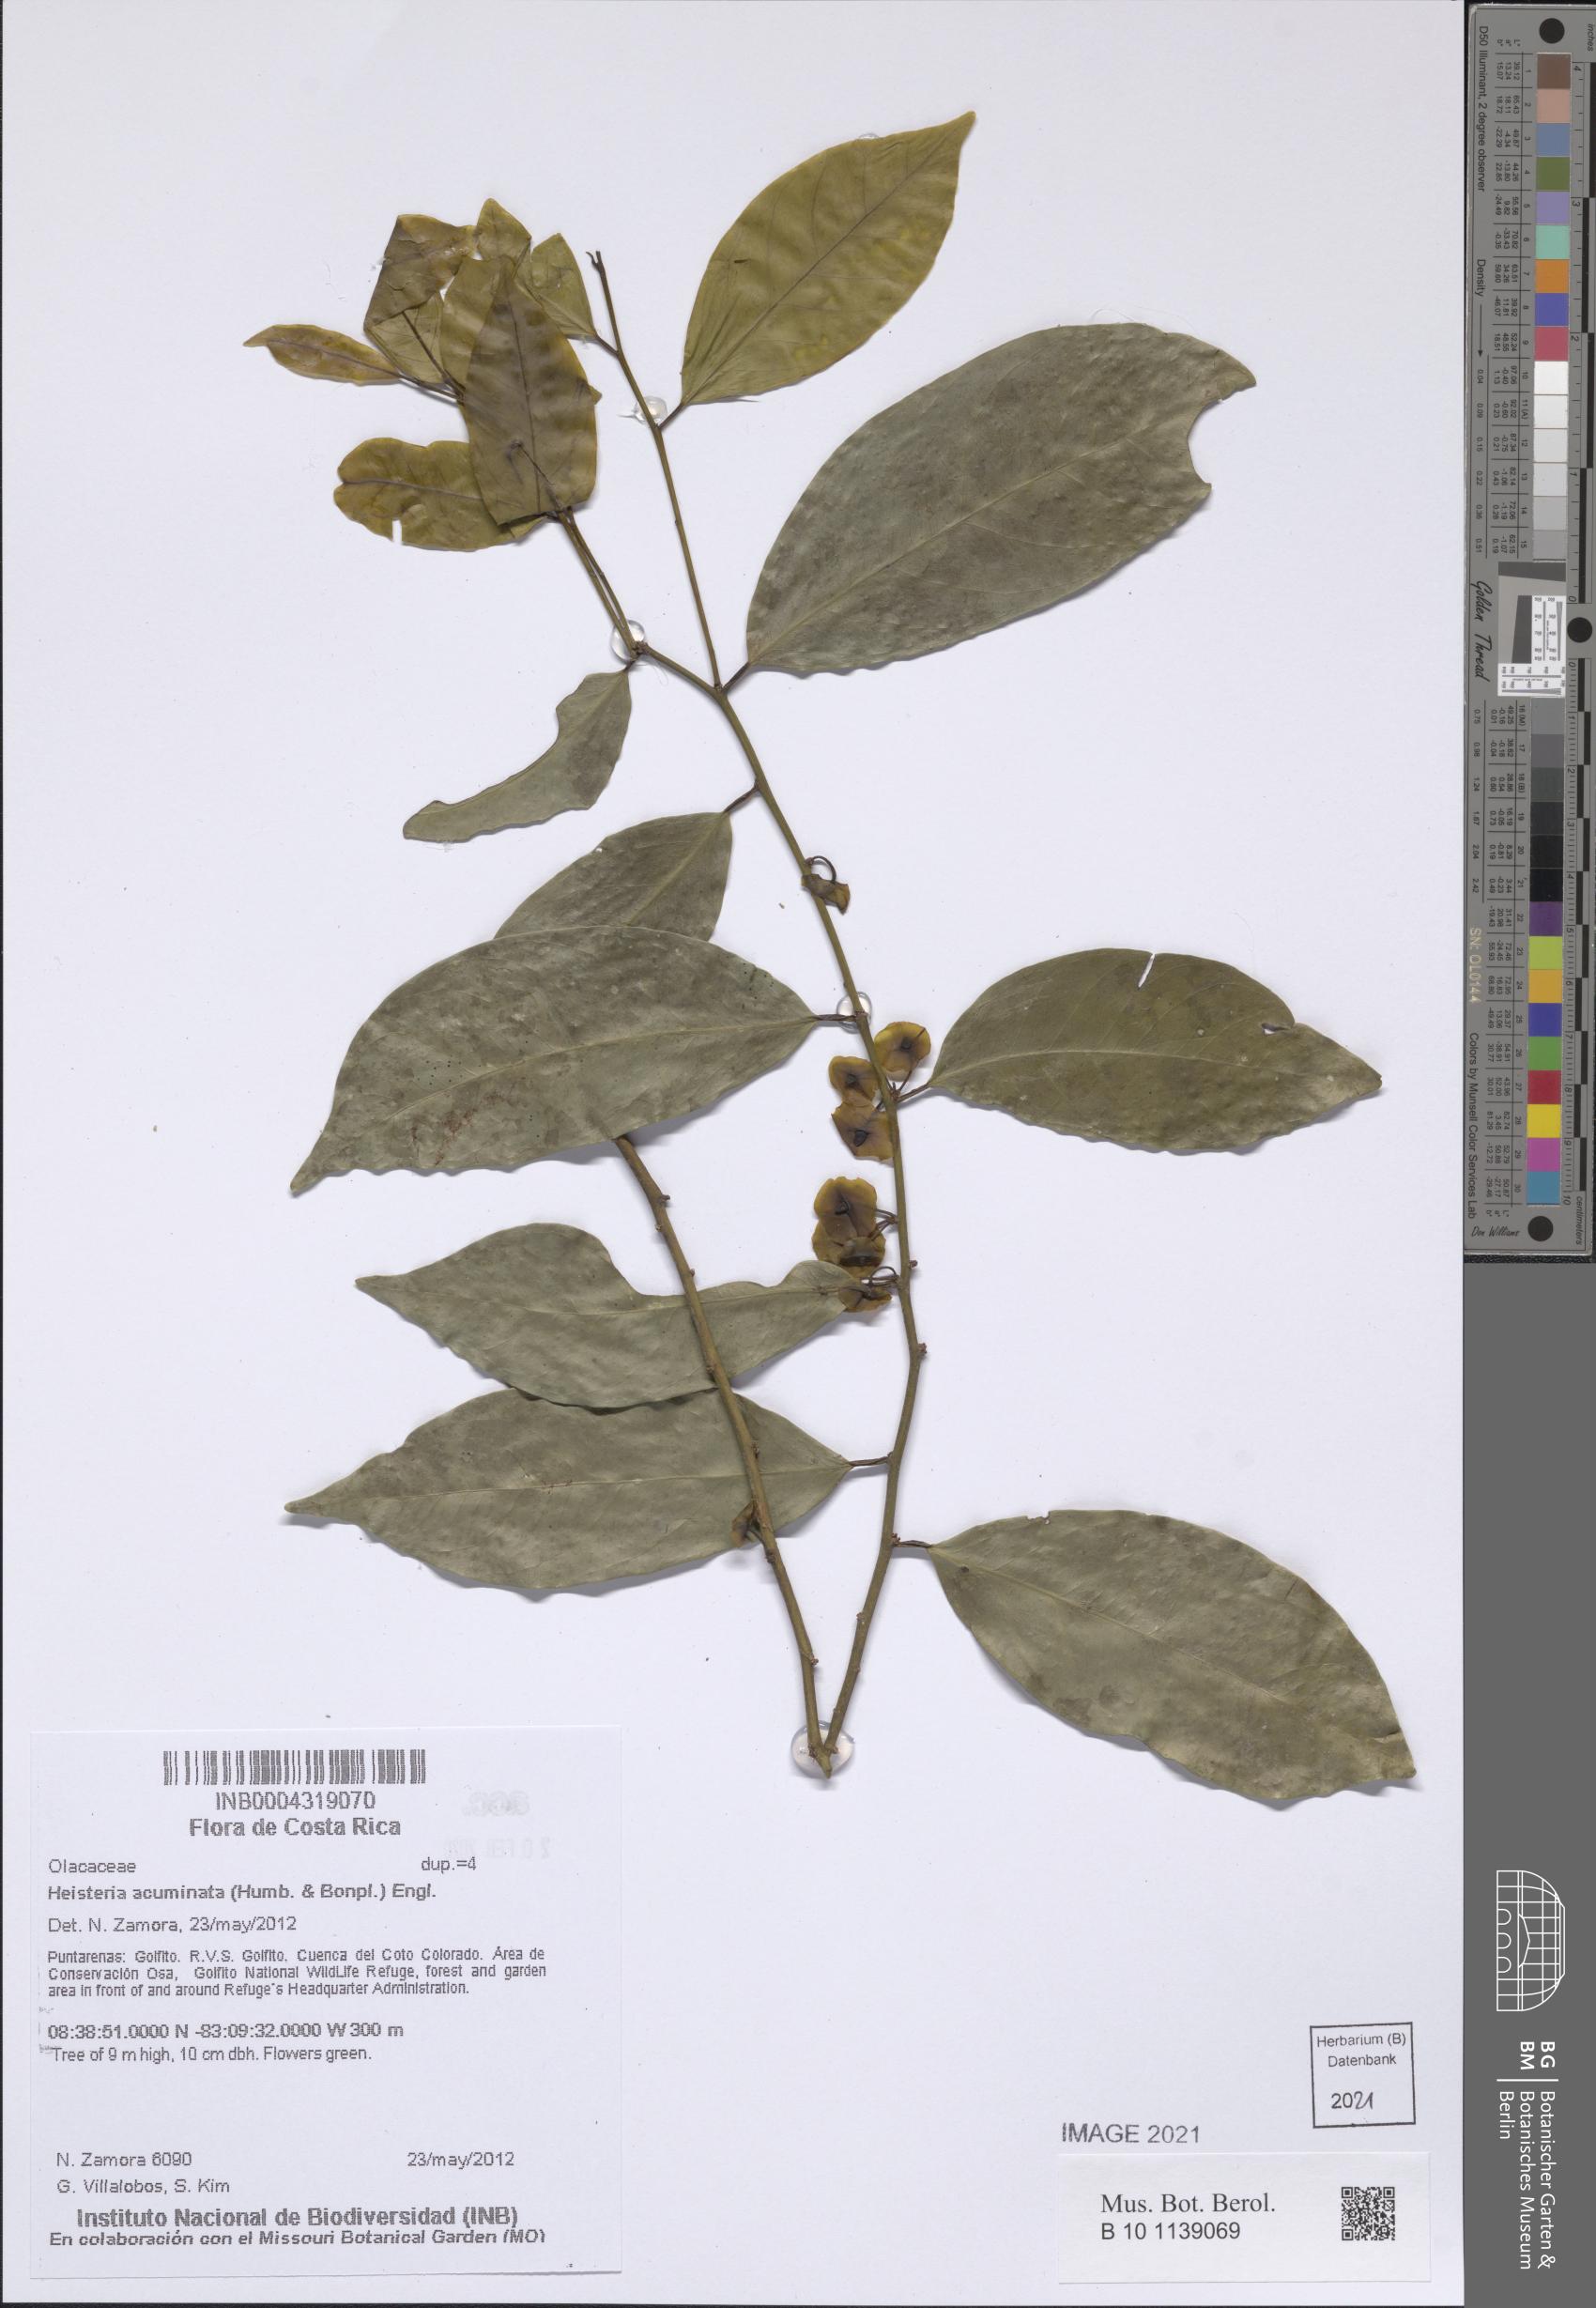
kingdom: Plantae
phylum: Tracheophyta
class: Magnoliopsida
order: Santalales
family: Erythropalaceae
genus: Heisteria
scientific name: Heisteria acuminata
